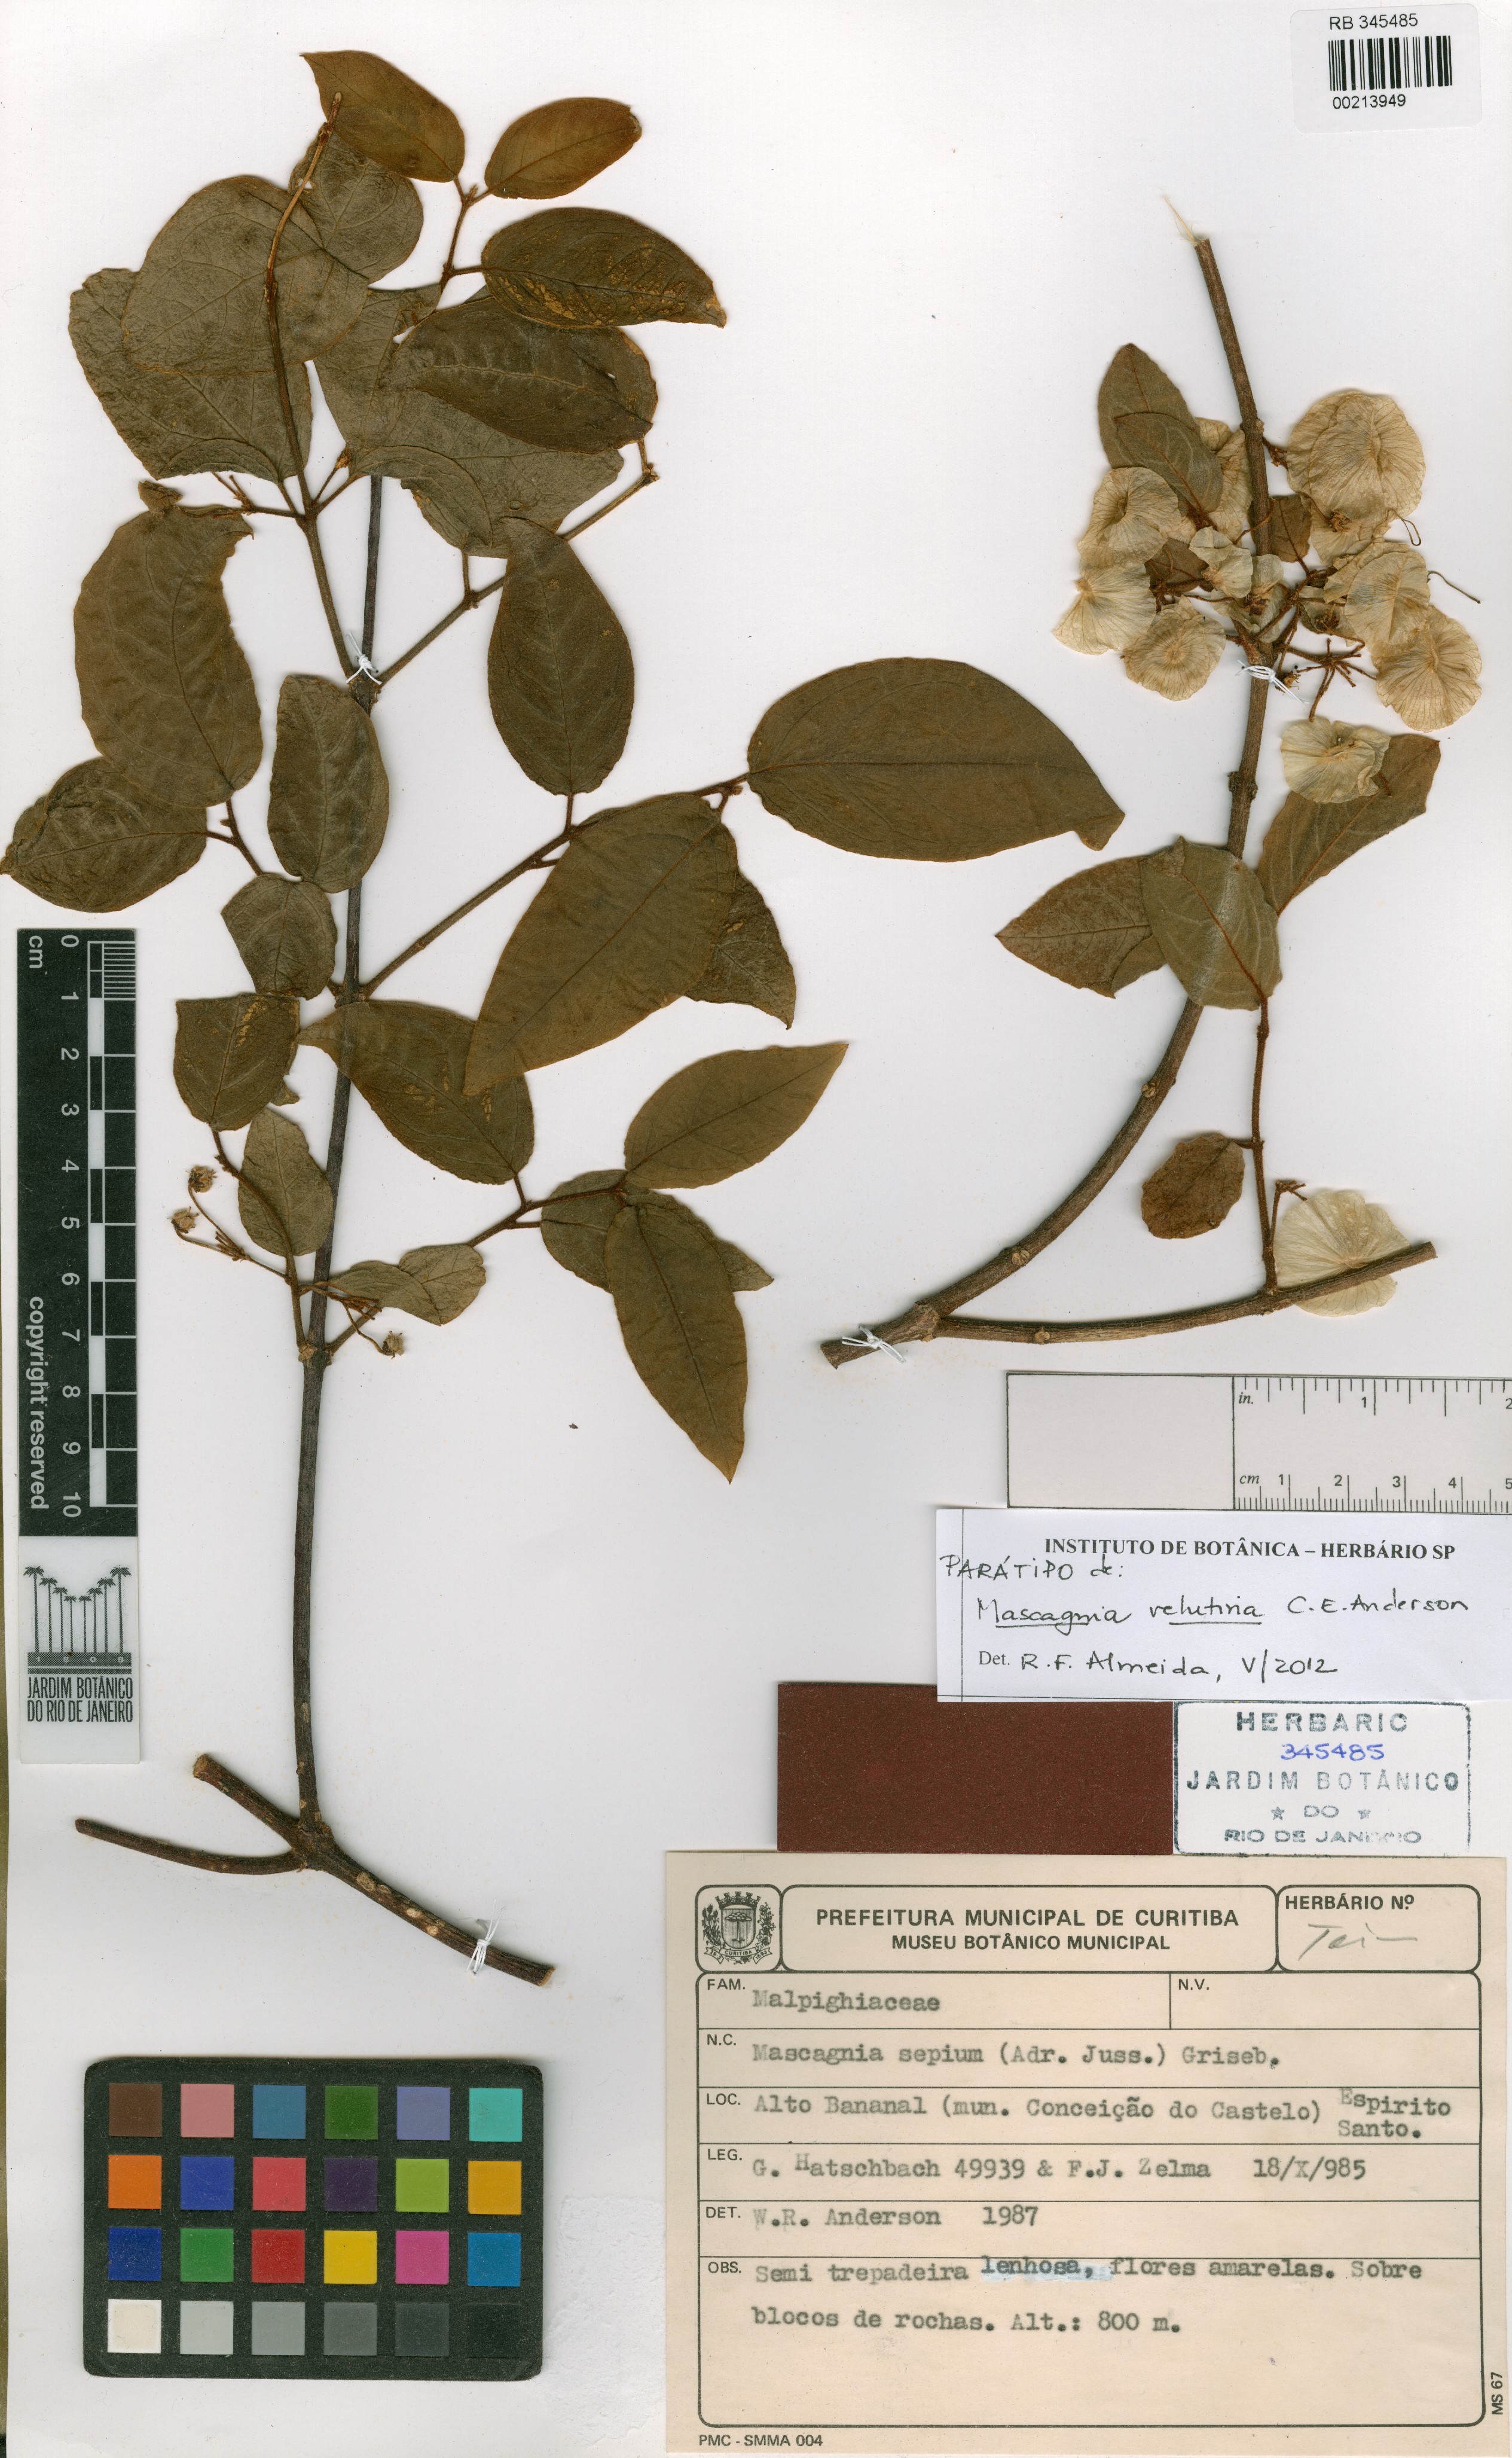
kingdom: Plantae
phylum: Tracheophyta
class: Magnoliopsida
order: Malpighiales
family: Malpighiaceae
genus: Mascagnia
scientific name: Mascagnia velutina
